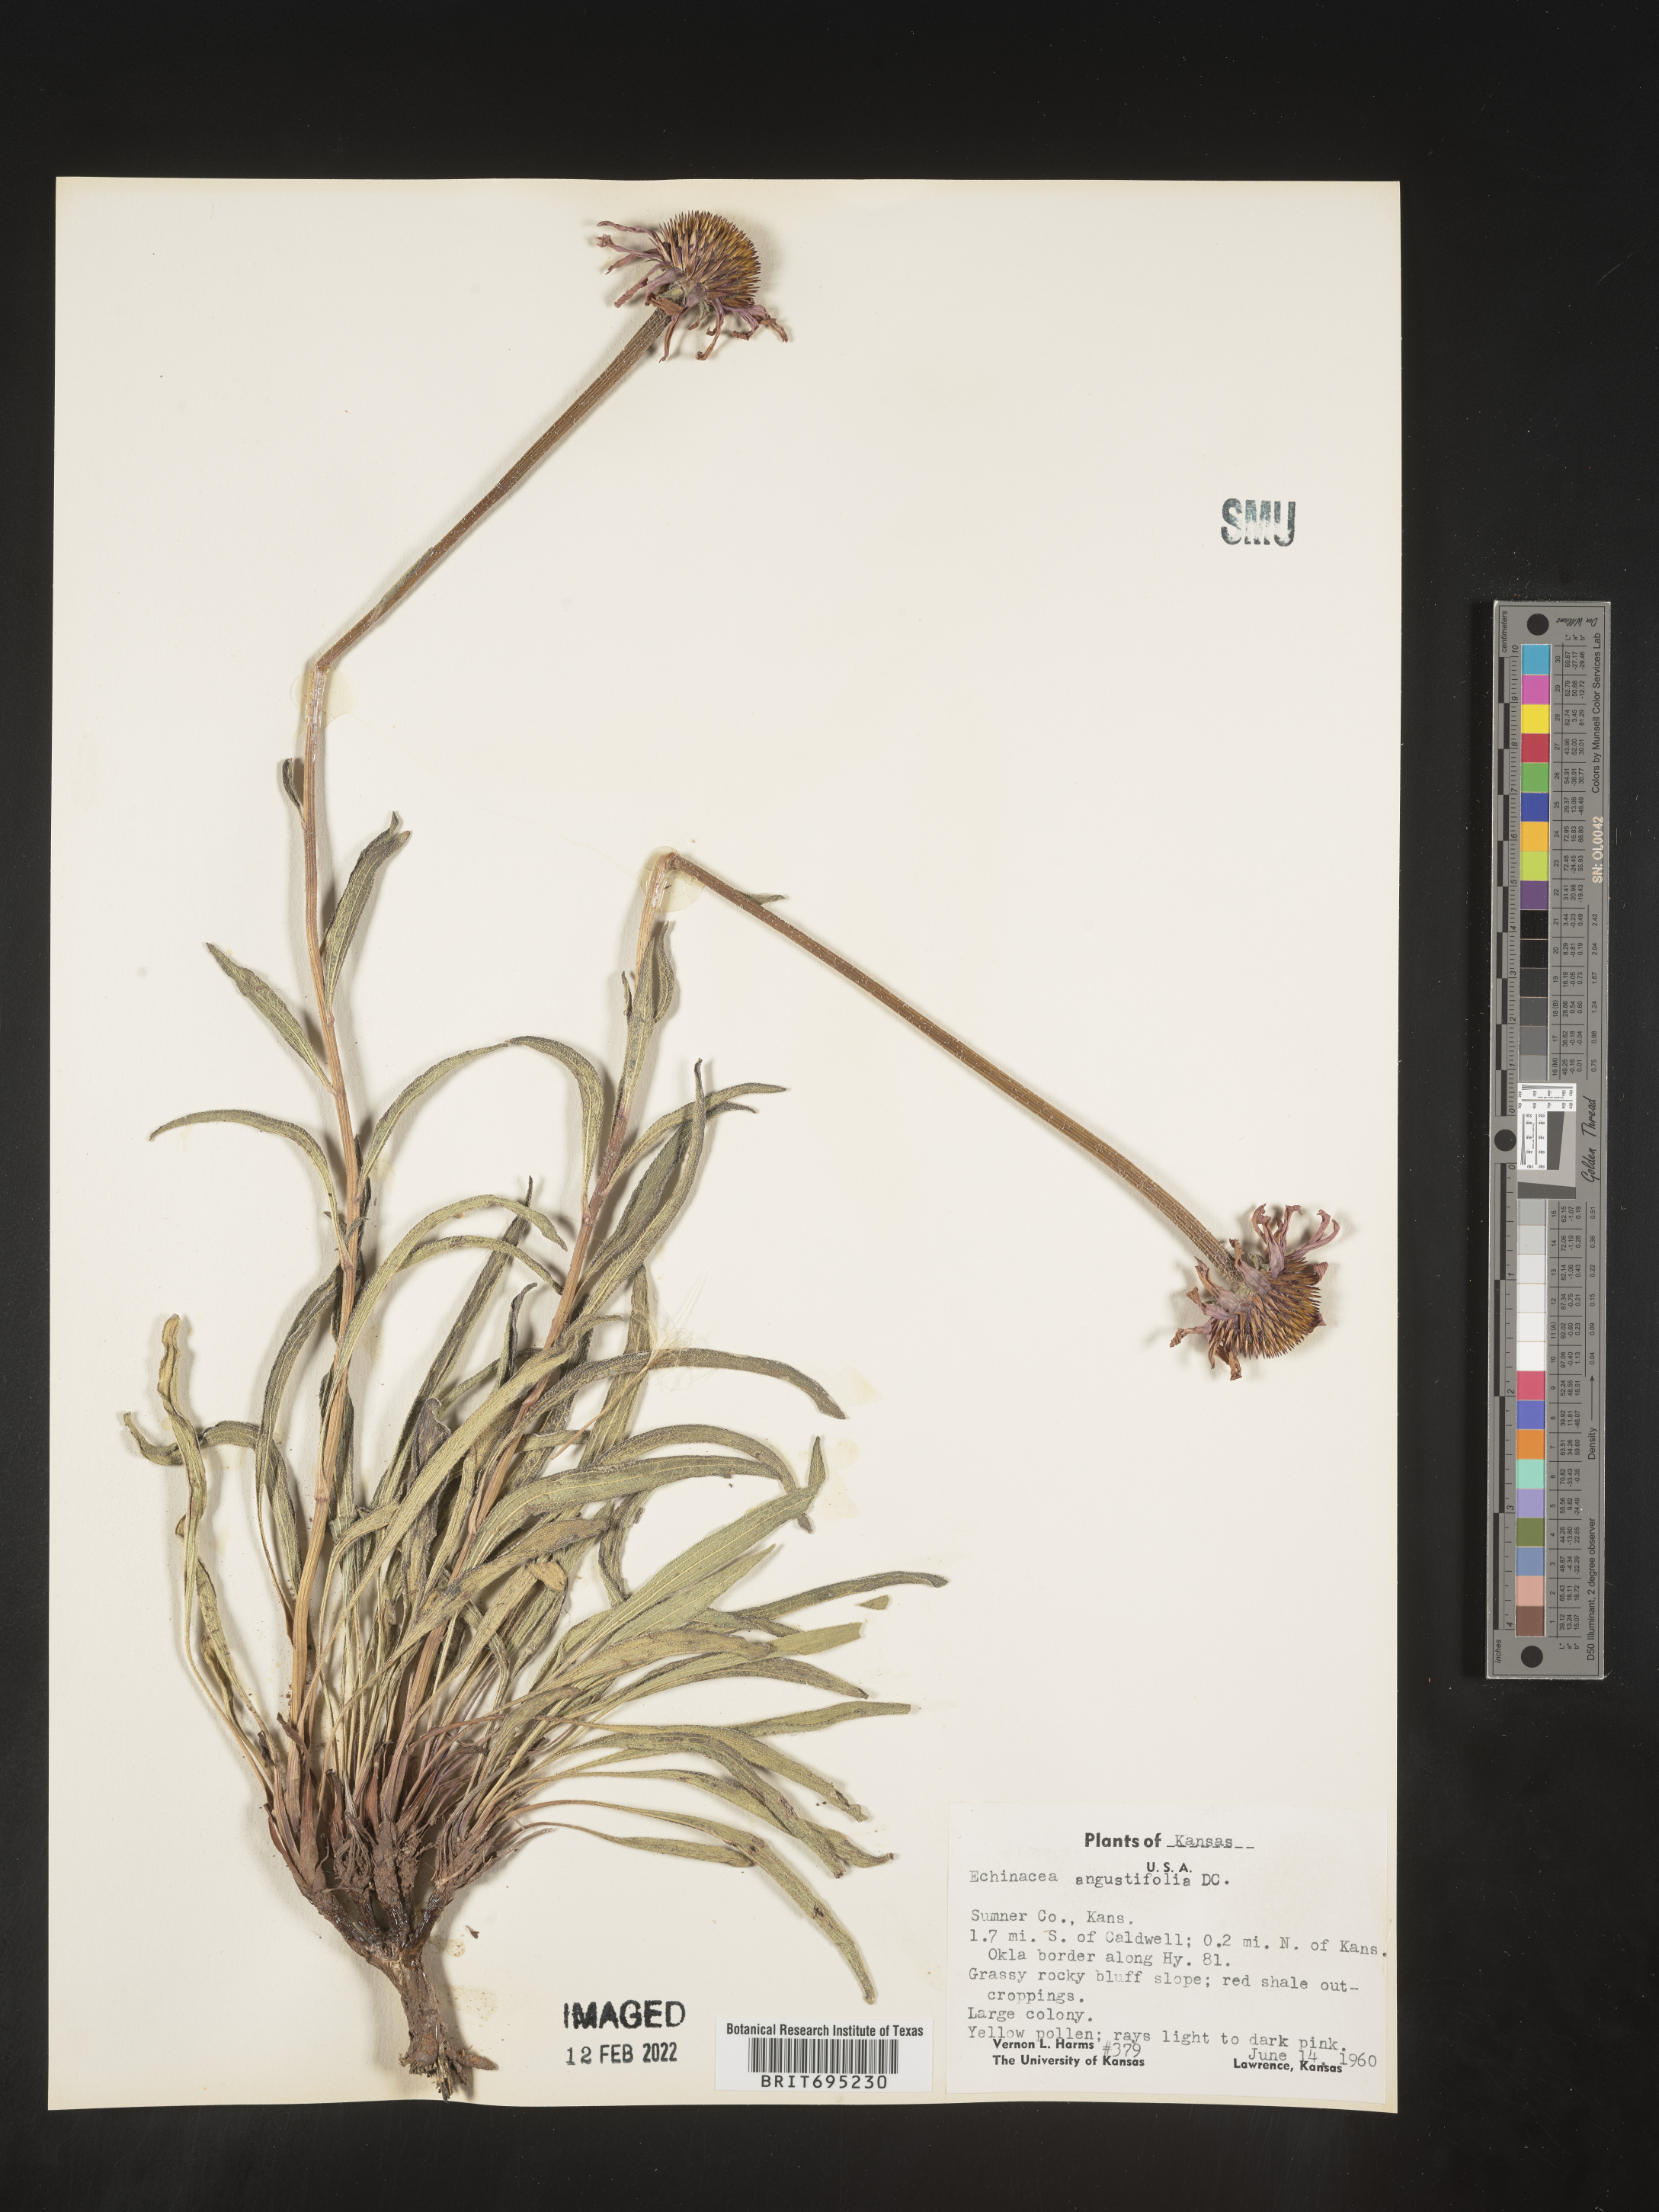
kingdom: Plantae
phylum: Tracheophyta
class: Magnoliopsida
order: Asterales
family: Asteraceae
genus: Echinacea
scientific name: Echinacea angustifolia
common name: Black-sampson echinacea
